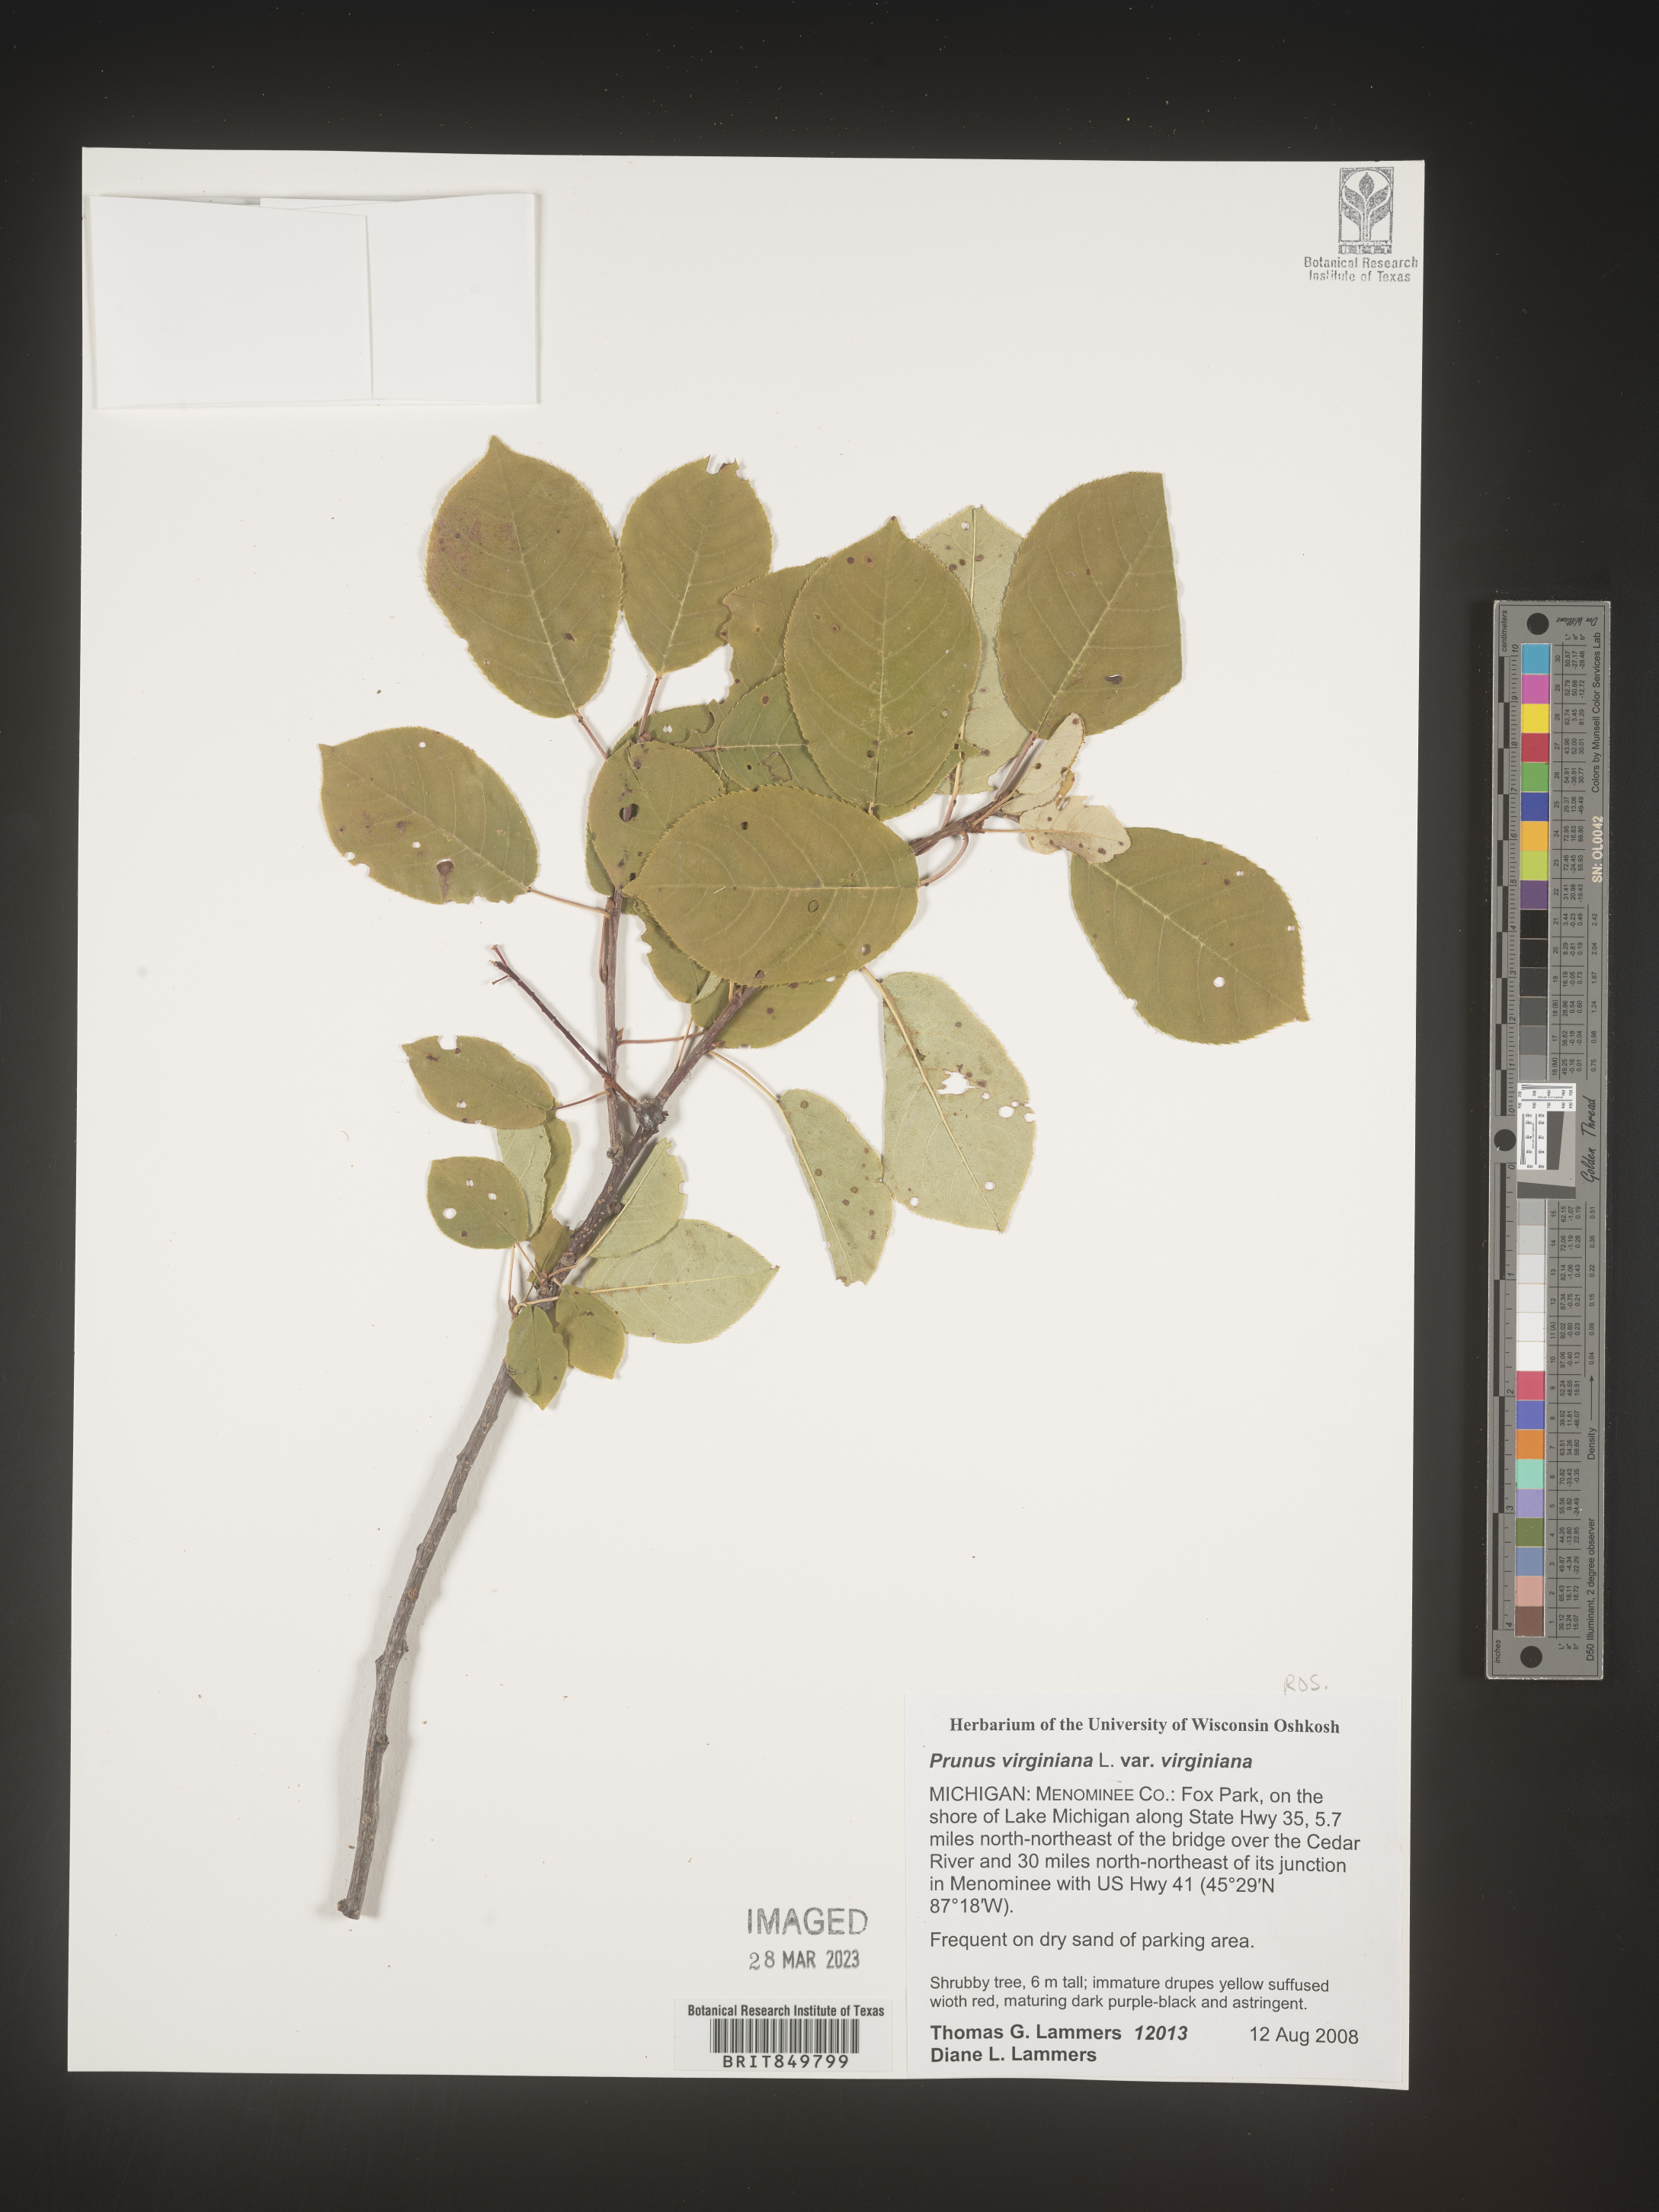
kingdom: Plantae
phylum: Tracheophyta
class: Magnoliopsida
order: Rosales
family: Rosaceae
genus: Prunus
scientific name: Prunus virginiana
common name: Chokecherry
